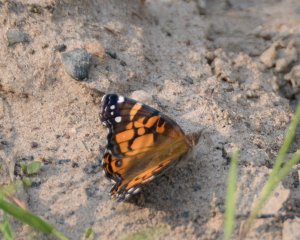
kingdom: Animalia
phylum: Arthropoda
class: Insecta
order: Lepidoptera
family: Nymphalidae
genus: Vanessa
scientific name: Vanessa virginiensis
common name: American Lady
